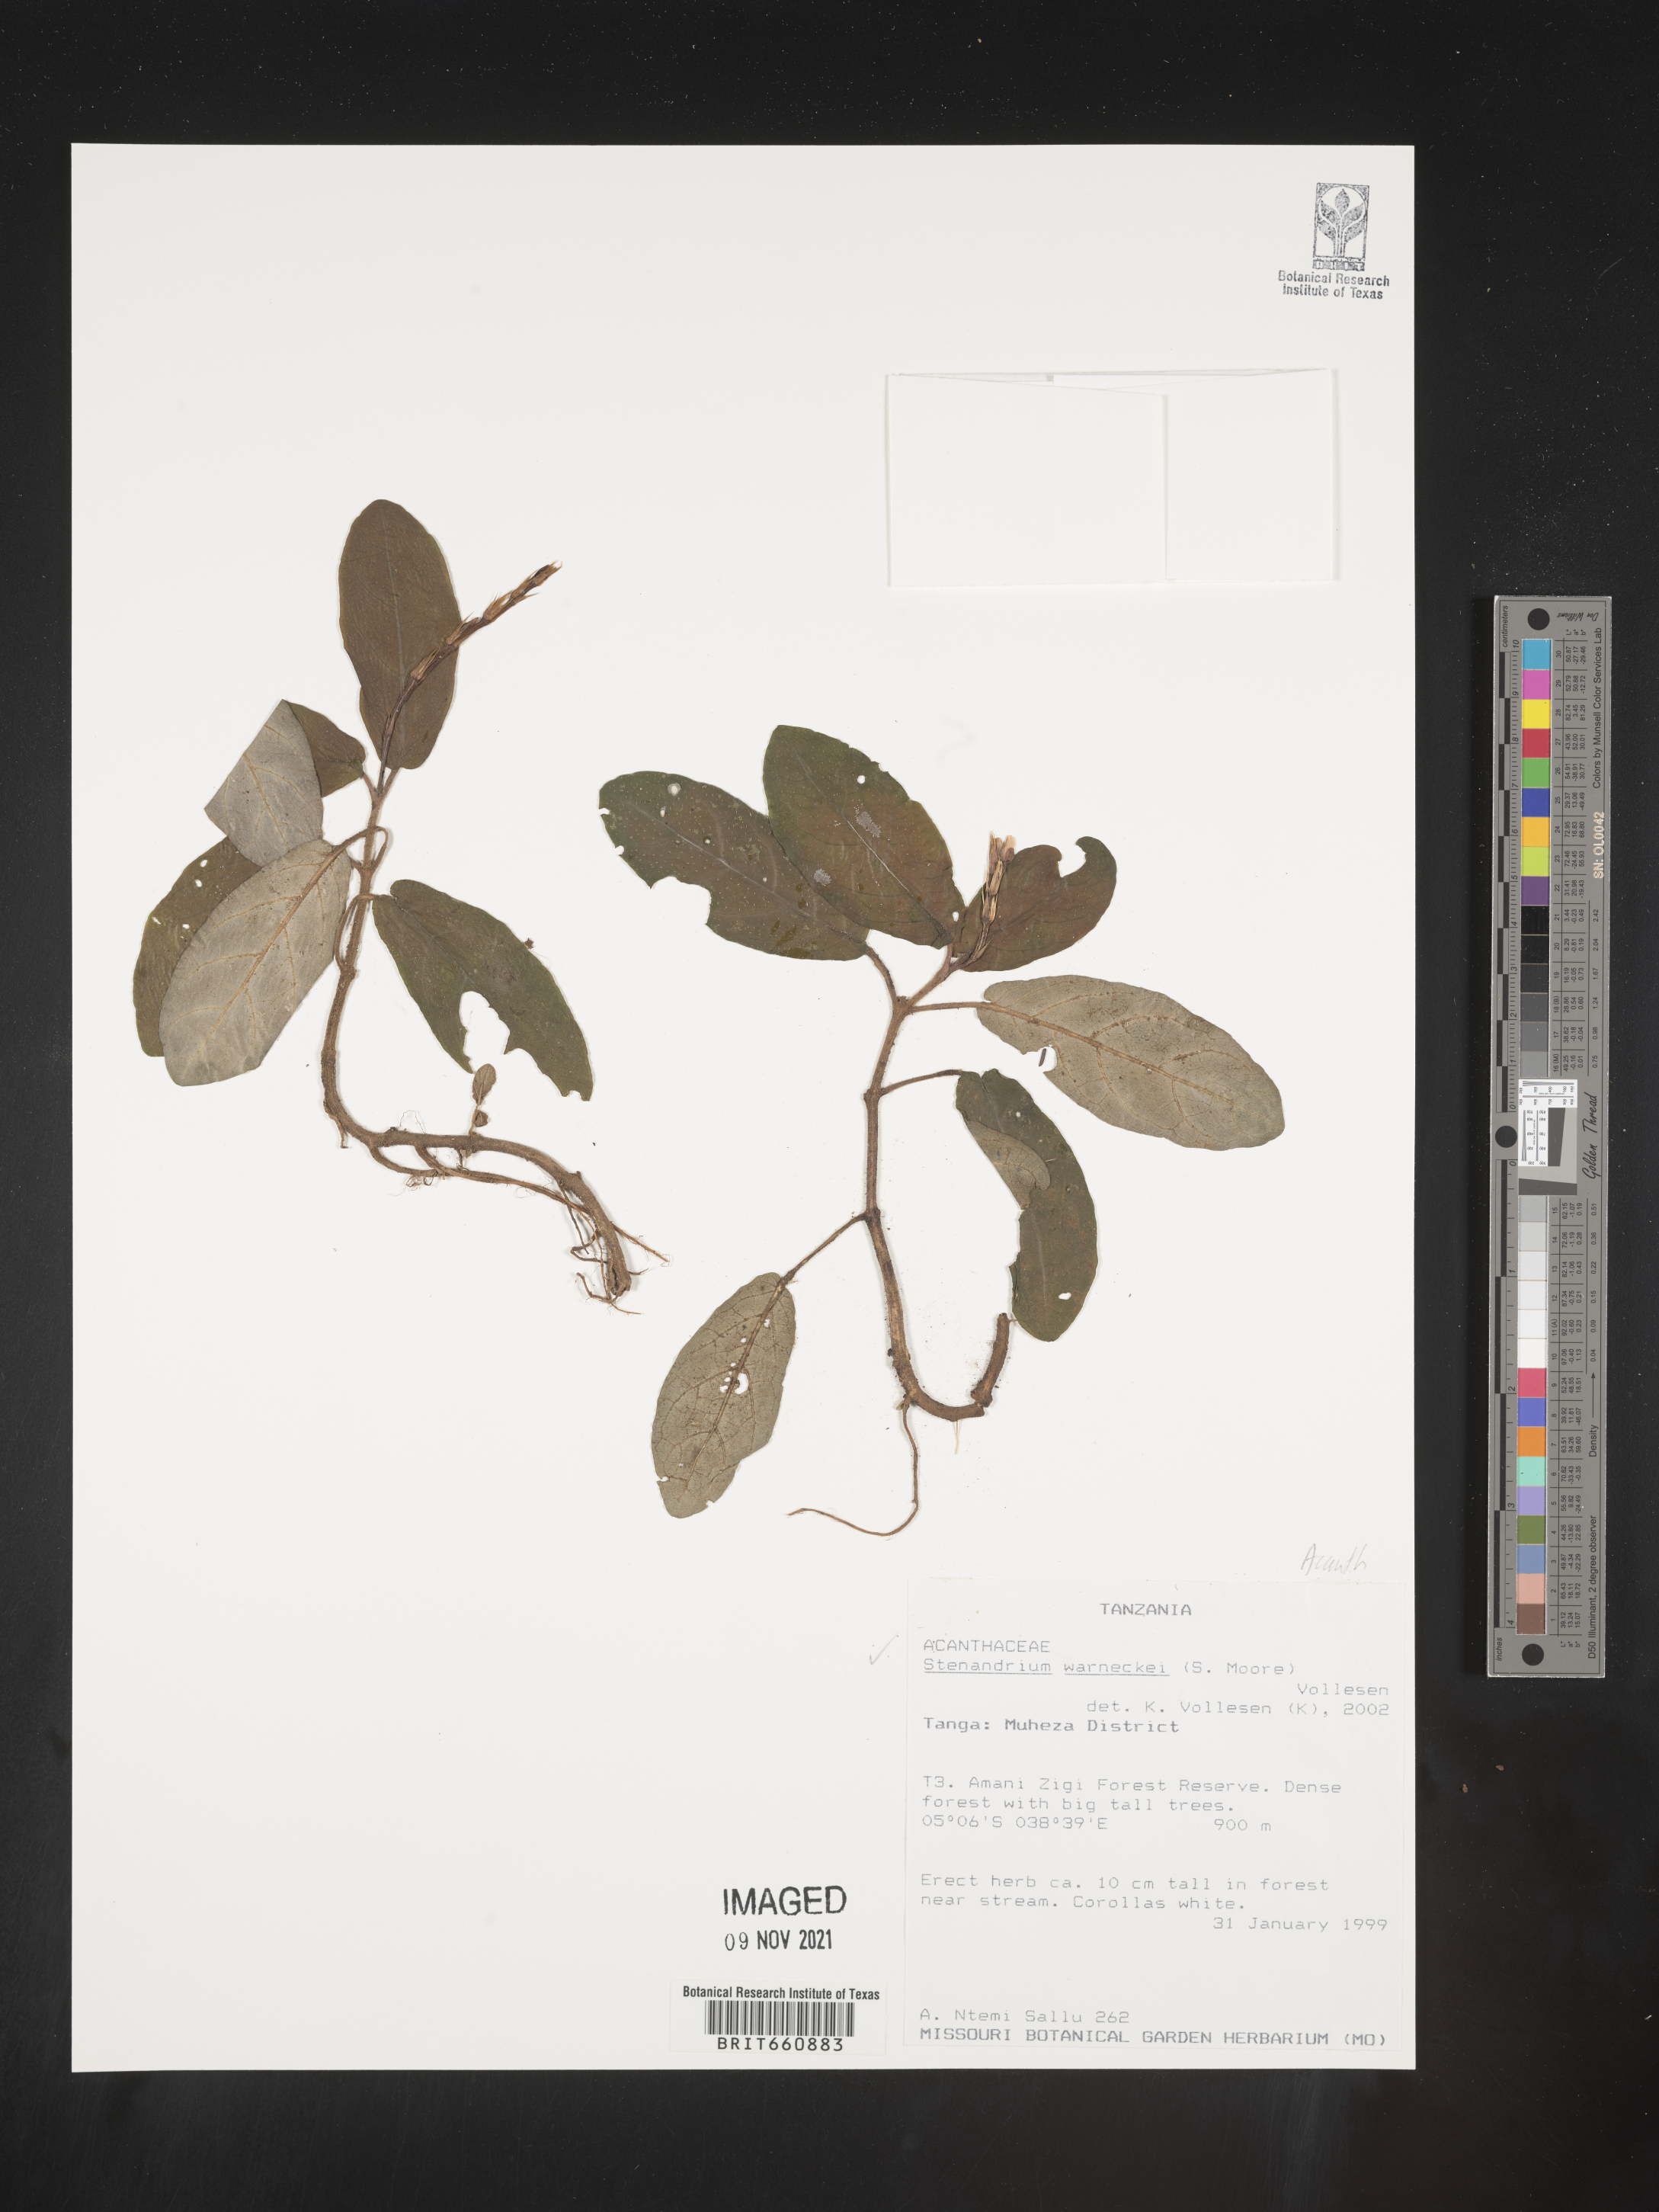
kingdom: Plantae
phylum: Tracheophyta
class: Magnoliopsida
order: Lamiales
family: Acanthaceae
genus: Stenandrium
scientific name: Stenandrium
